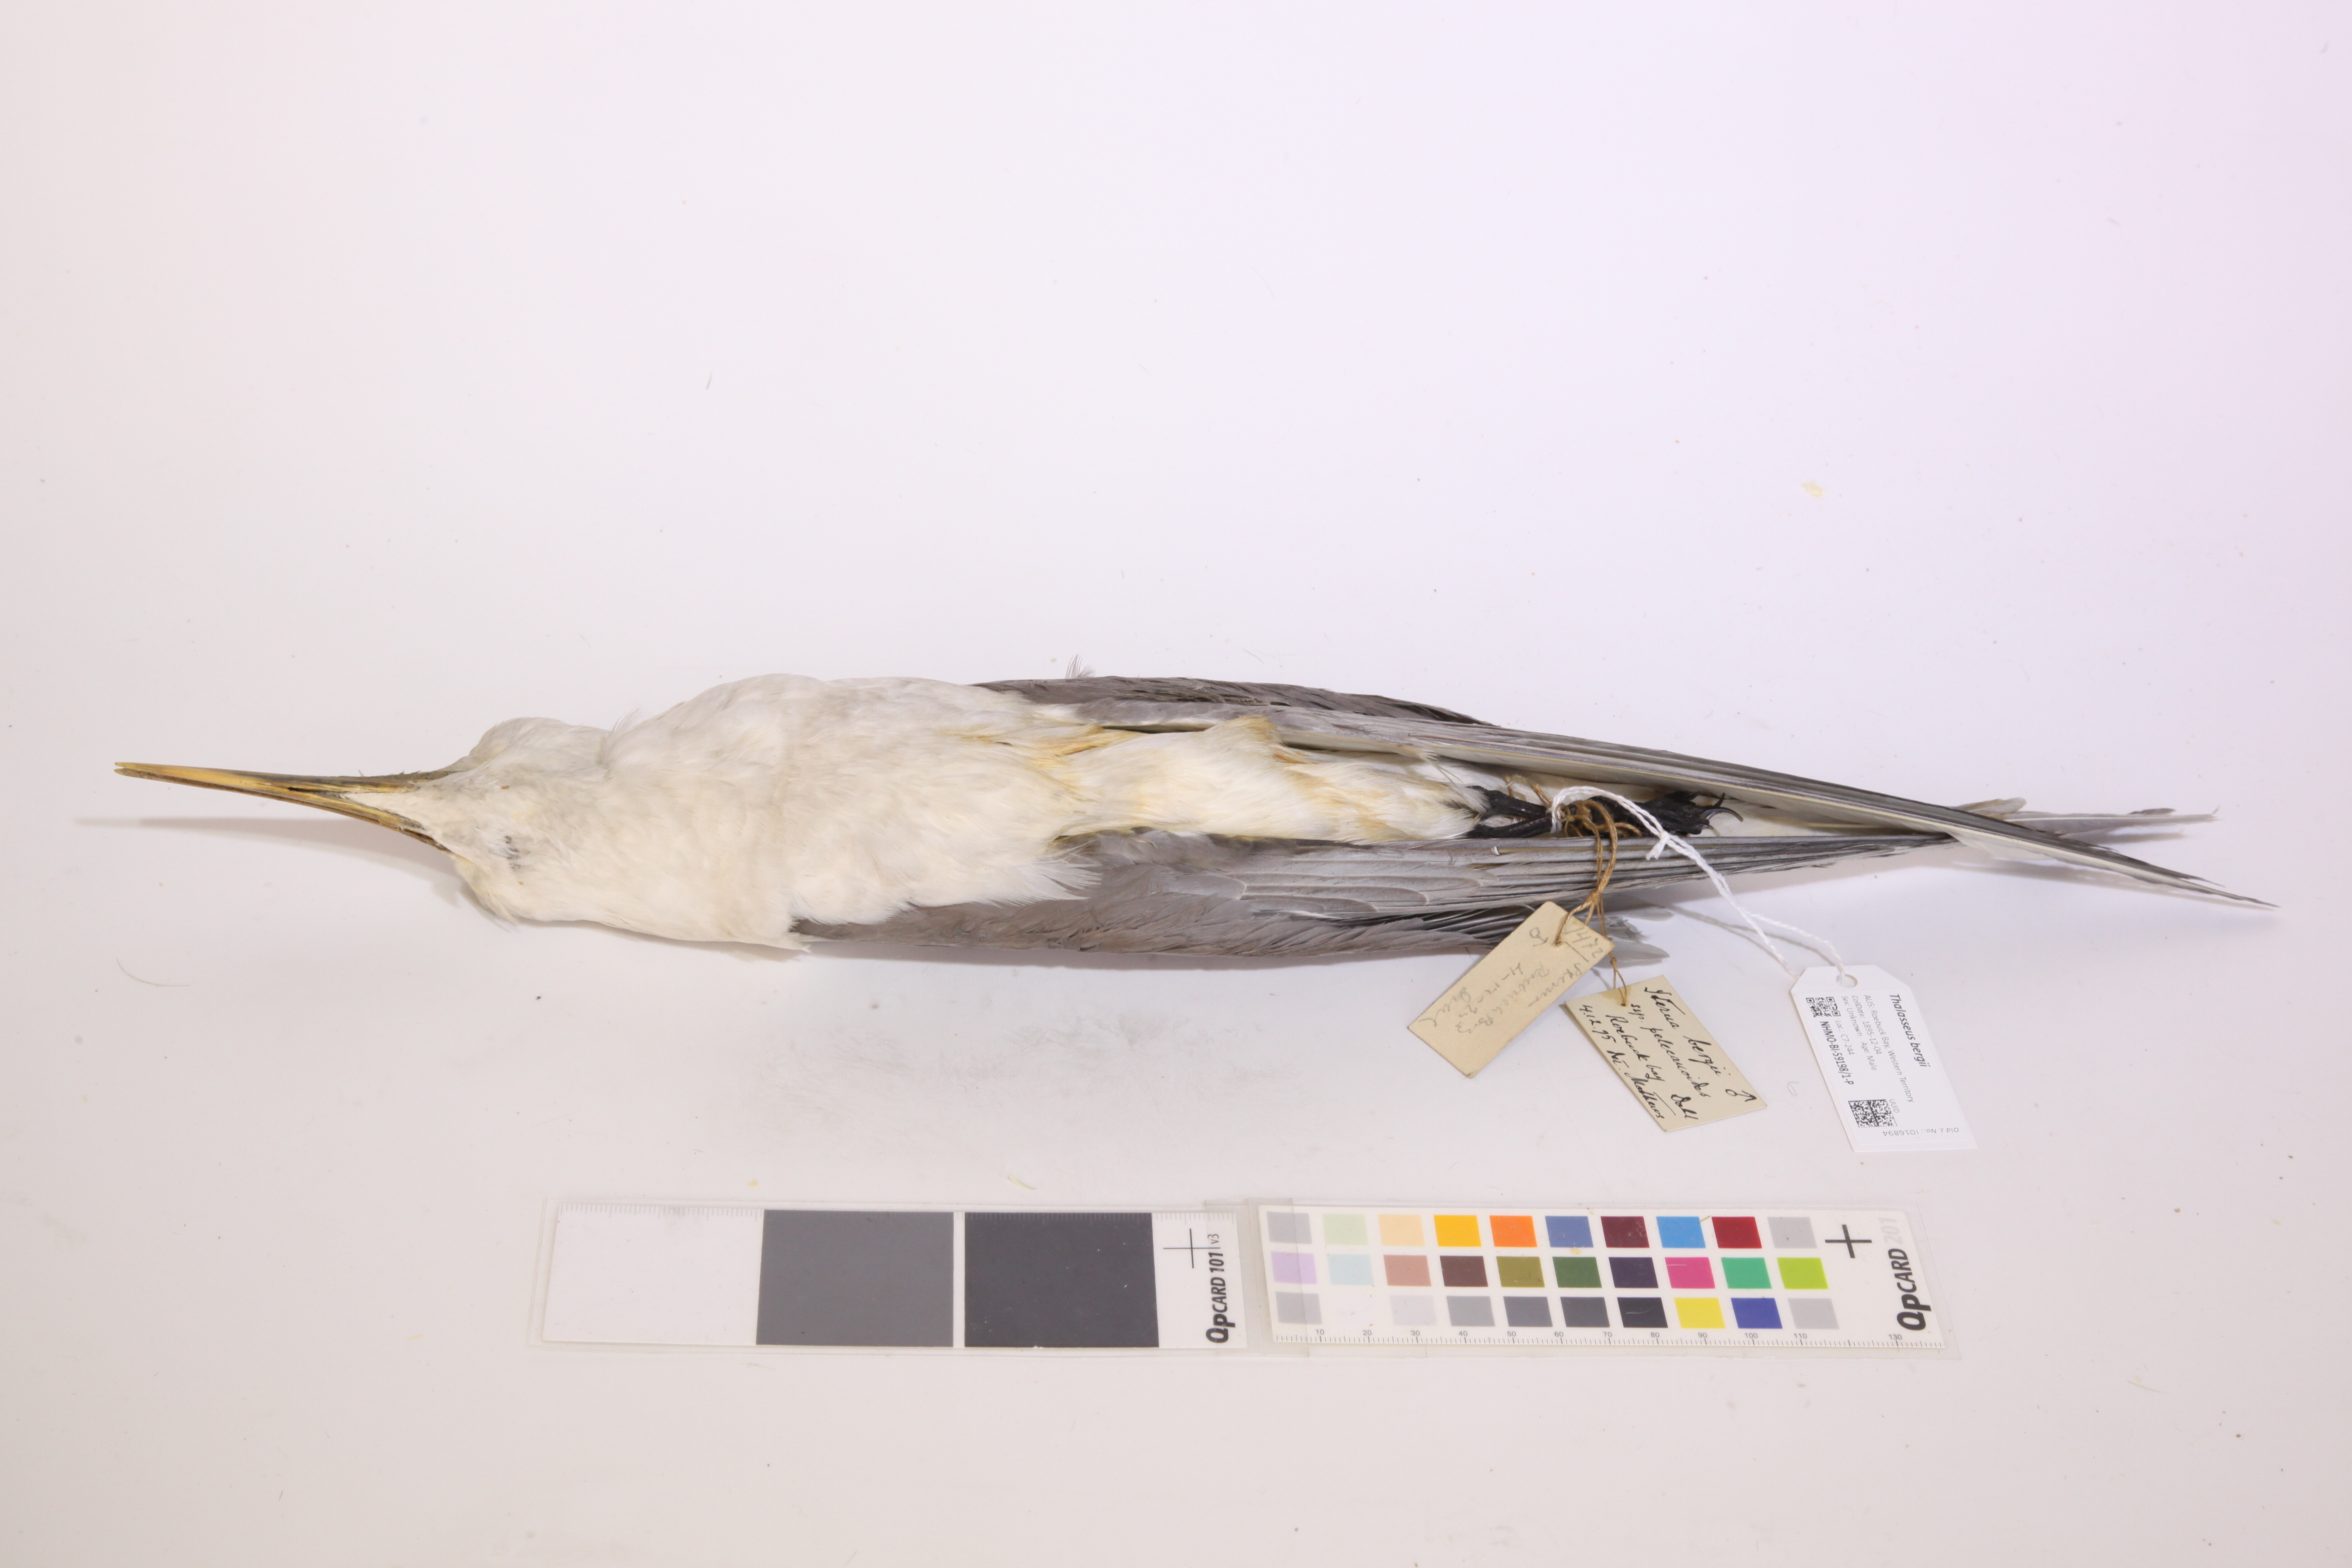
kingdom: Animalia
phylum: Chordata
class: Aves
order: Charadriiformes
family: Laridae
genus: Thalasseus
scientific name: Thalasseus bergii
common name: Greater crested tern
